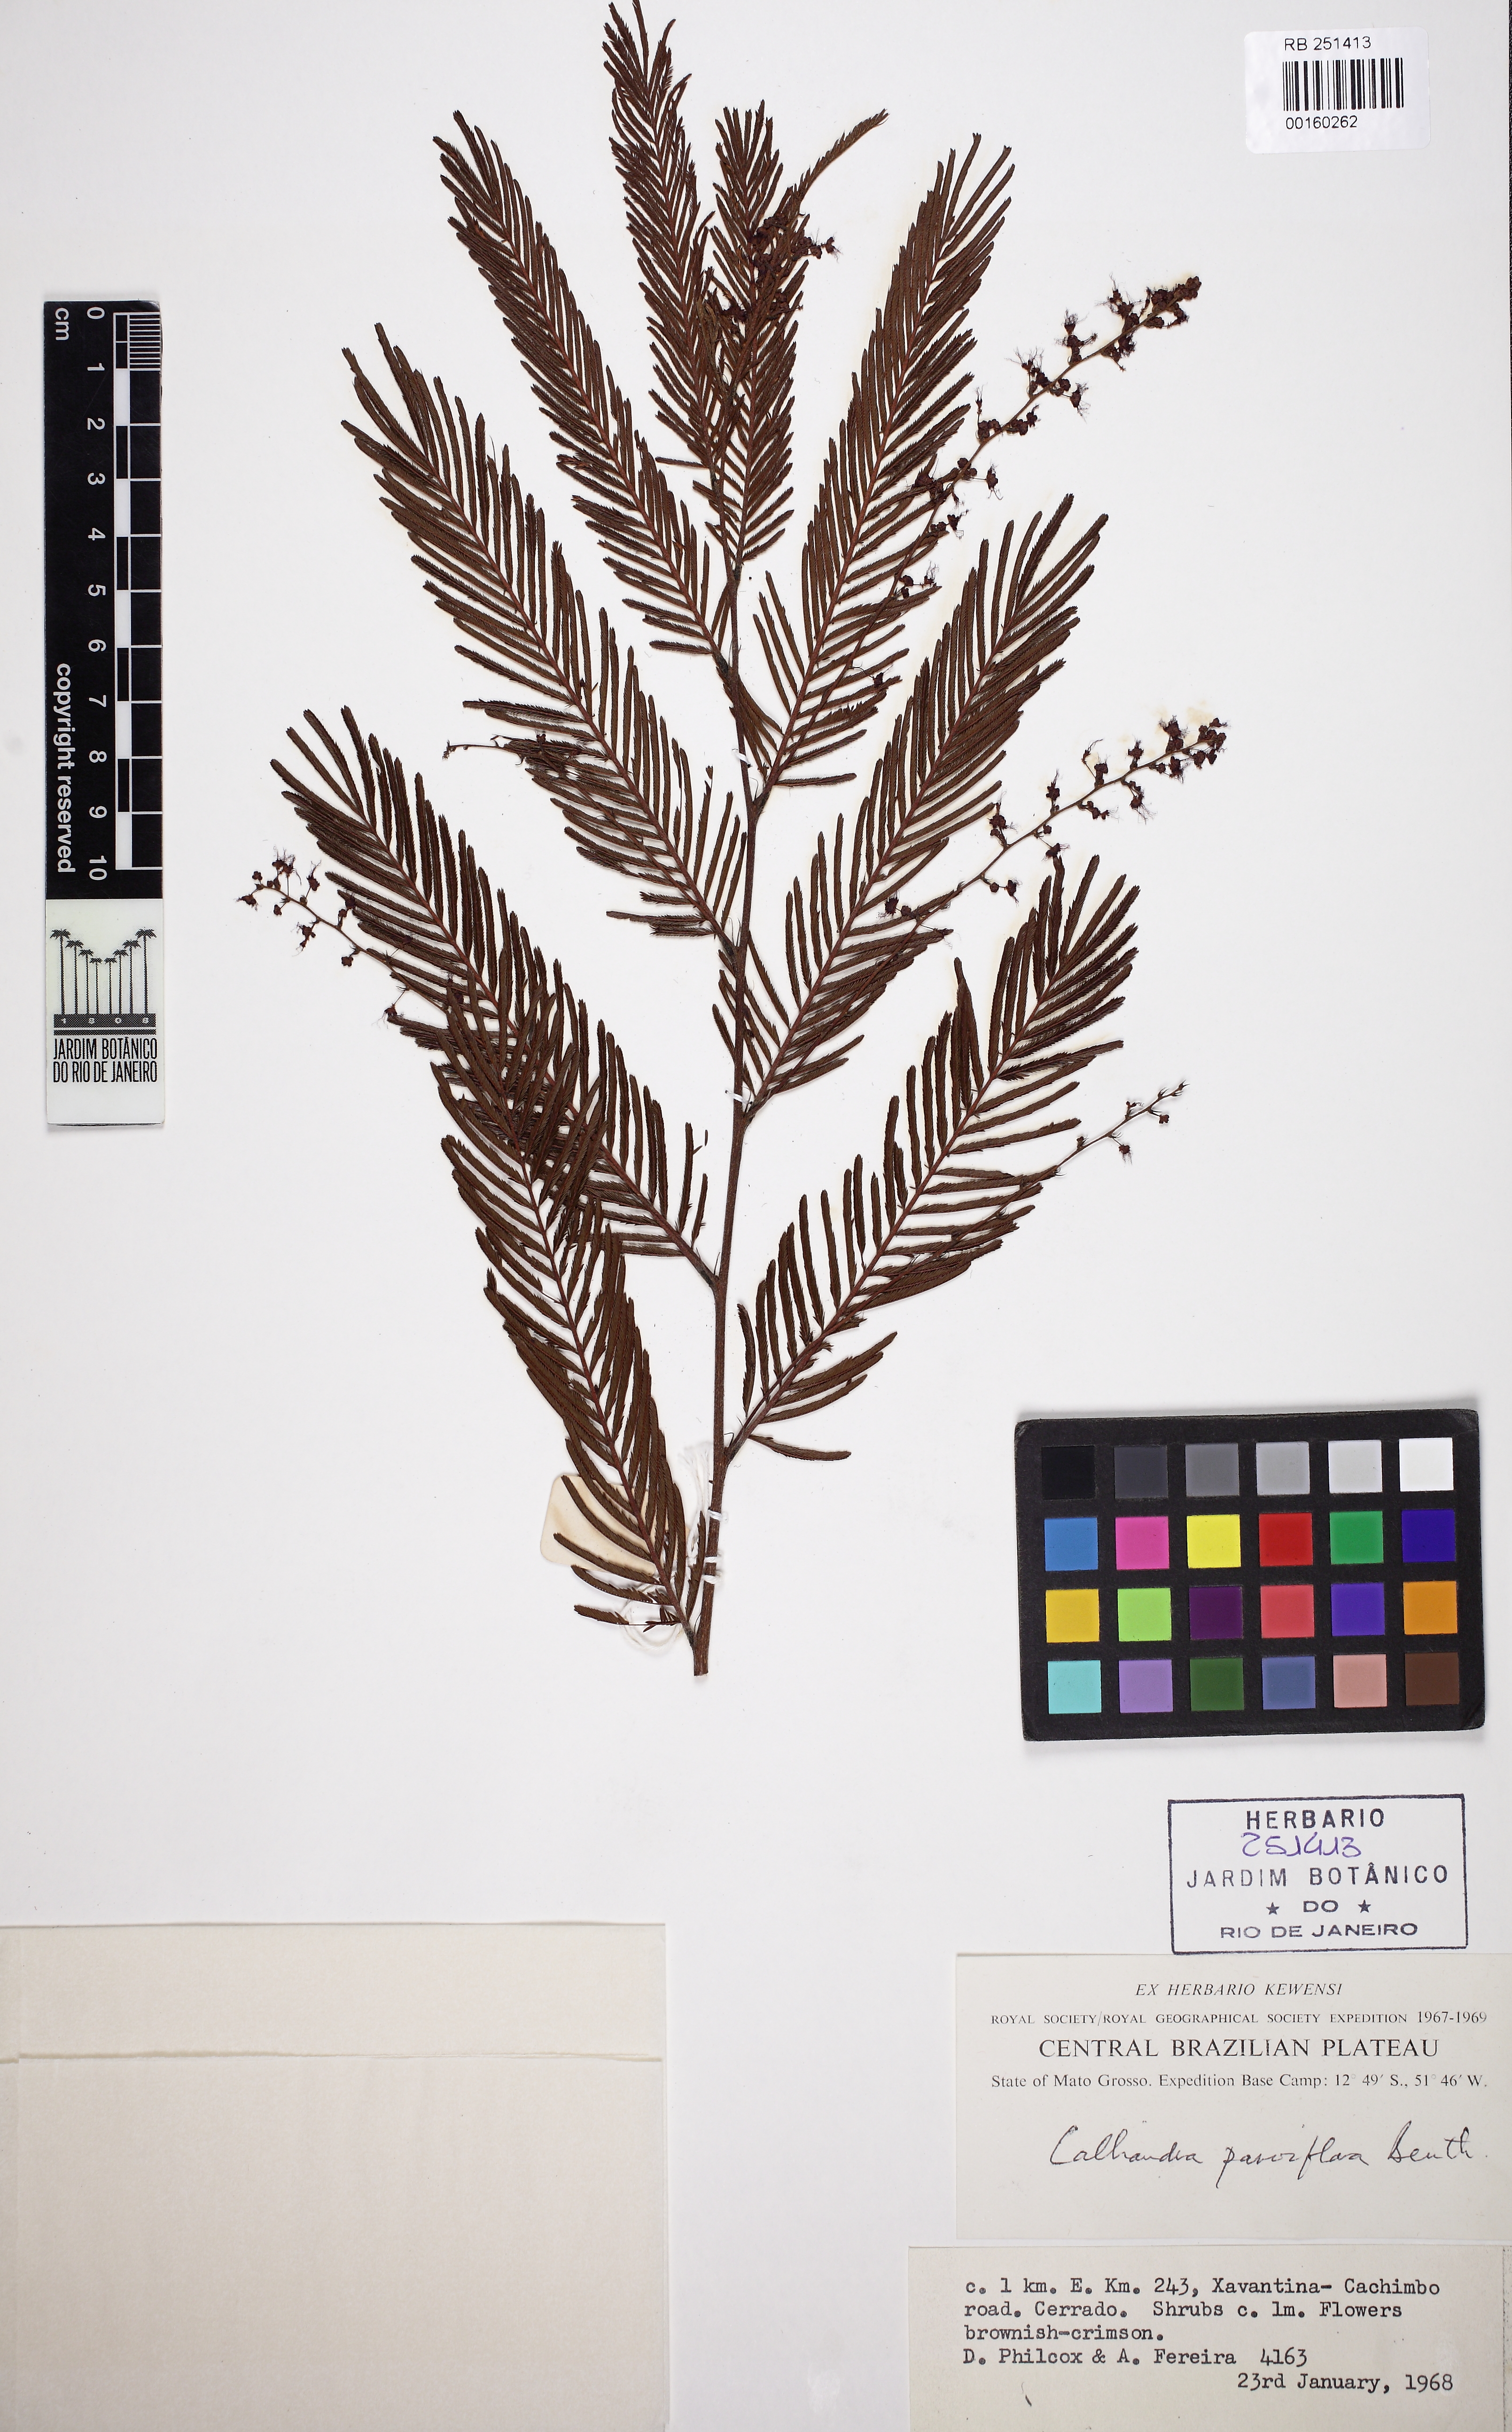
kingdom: Plantae
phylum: Tracheophyta
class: Magnoliopsida
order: Fabales
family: Fabaceae
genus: Calliandra
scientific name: Calliandra parviflora
